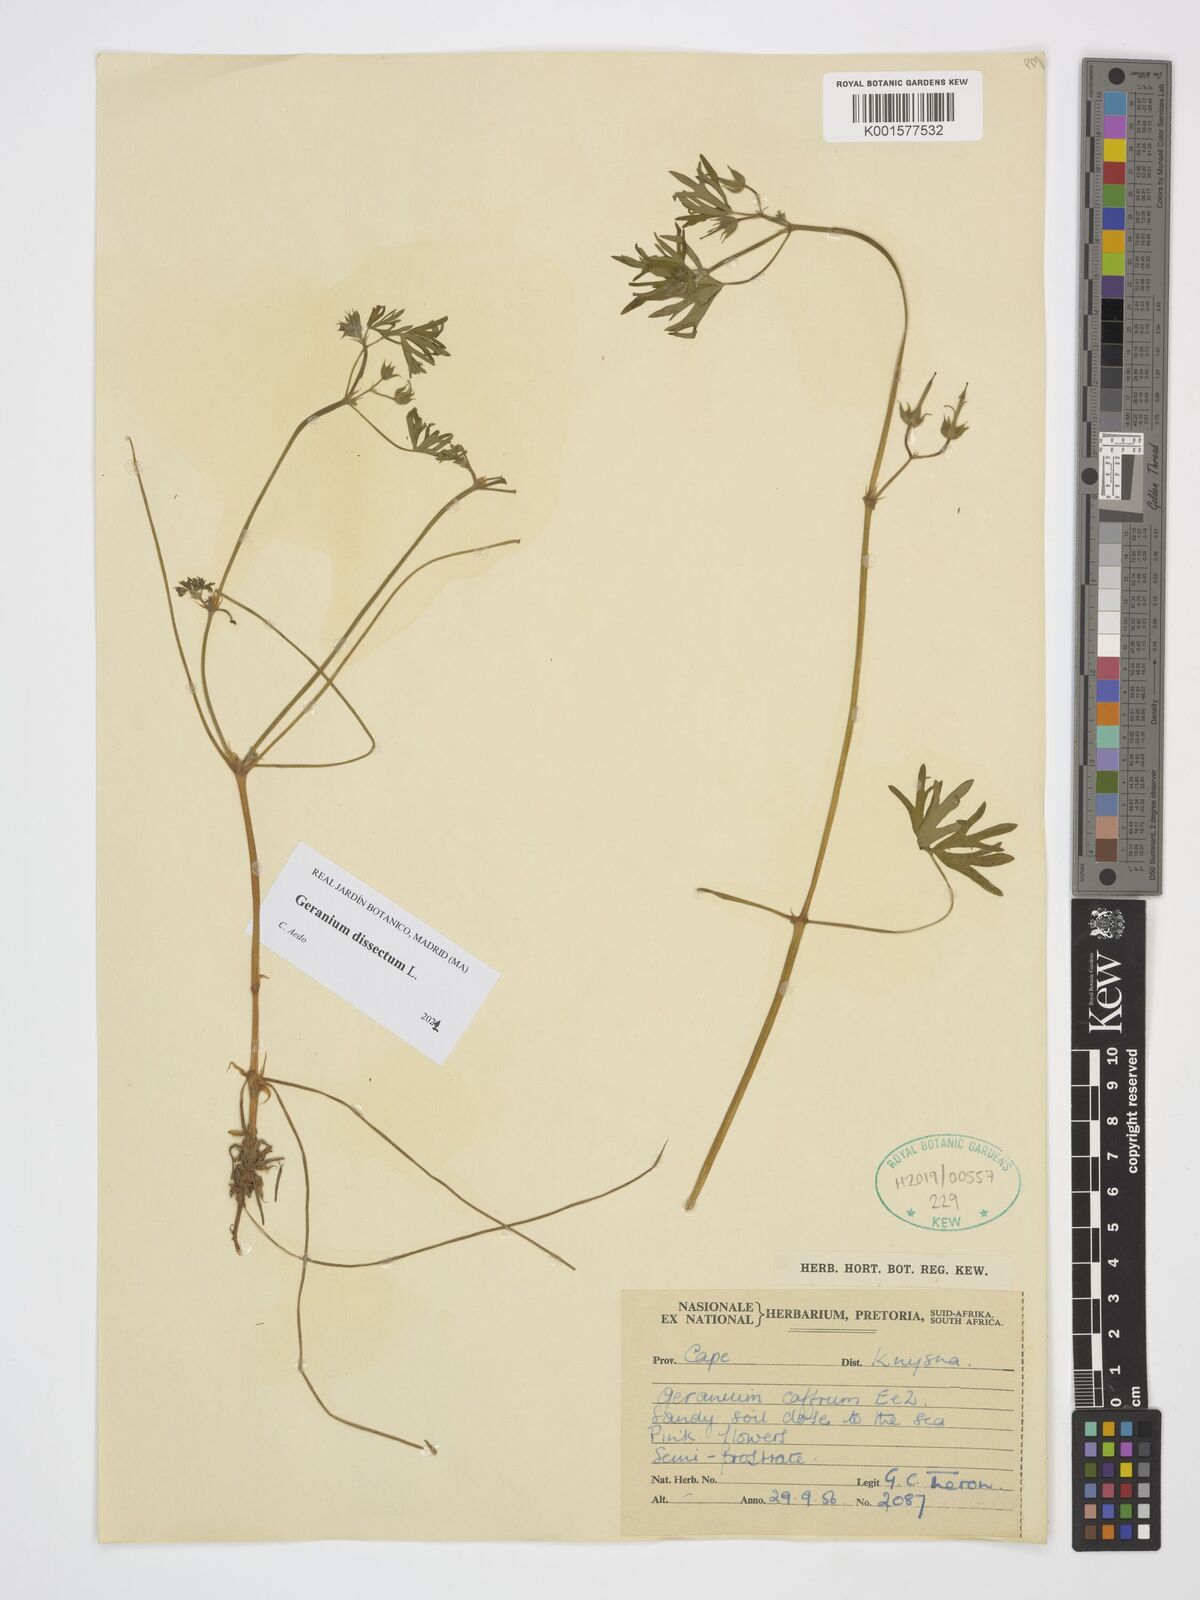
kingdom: Plantae
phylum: Tracheophyta
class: Magnoliopsida
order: Geraniales
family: Geraniaceae
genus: Geranium
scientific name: Geranium dissectum
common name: Cut-leaved crane's-bill
